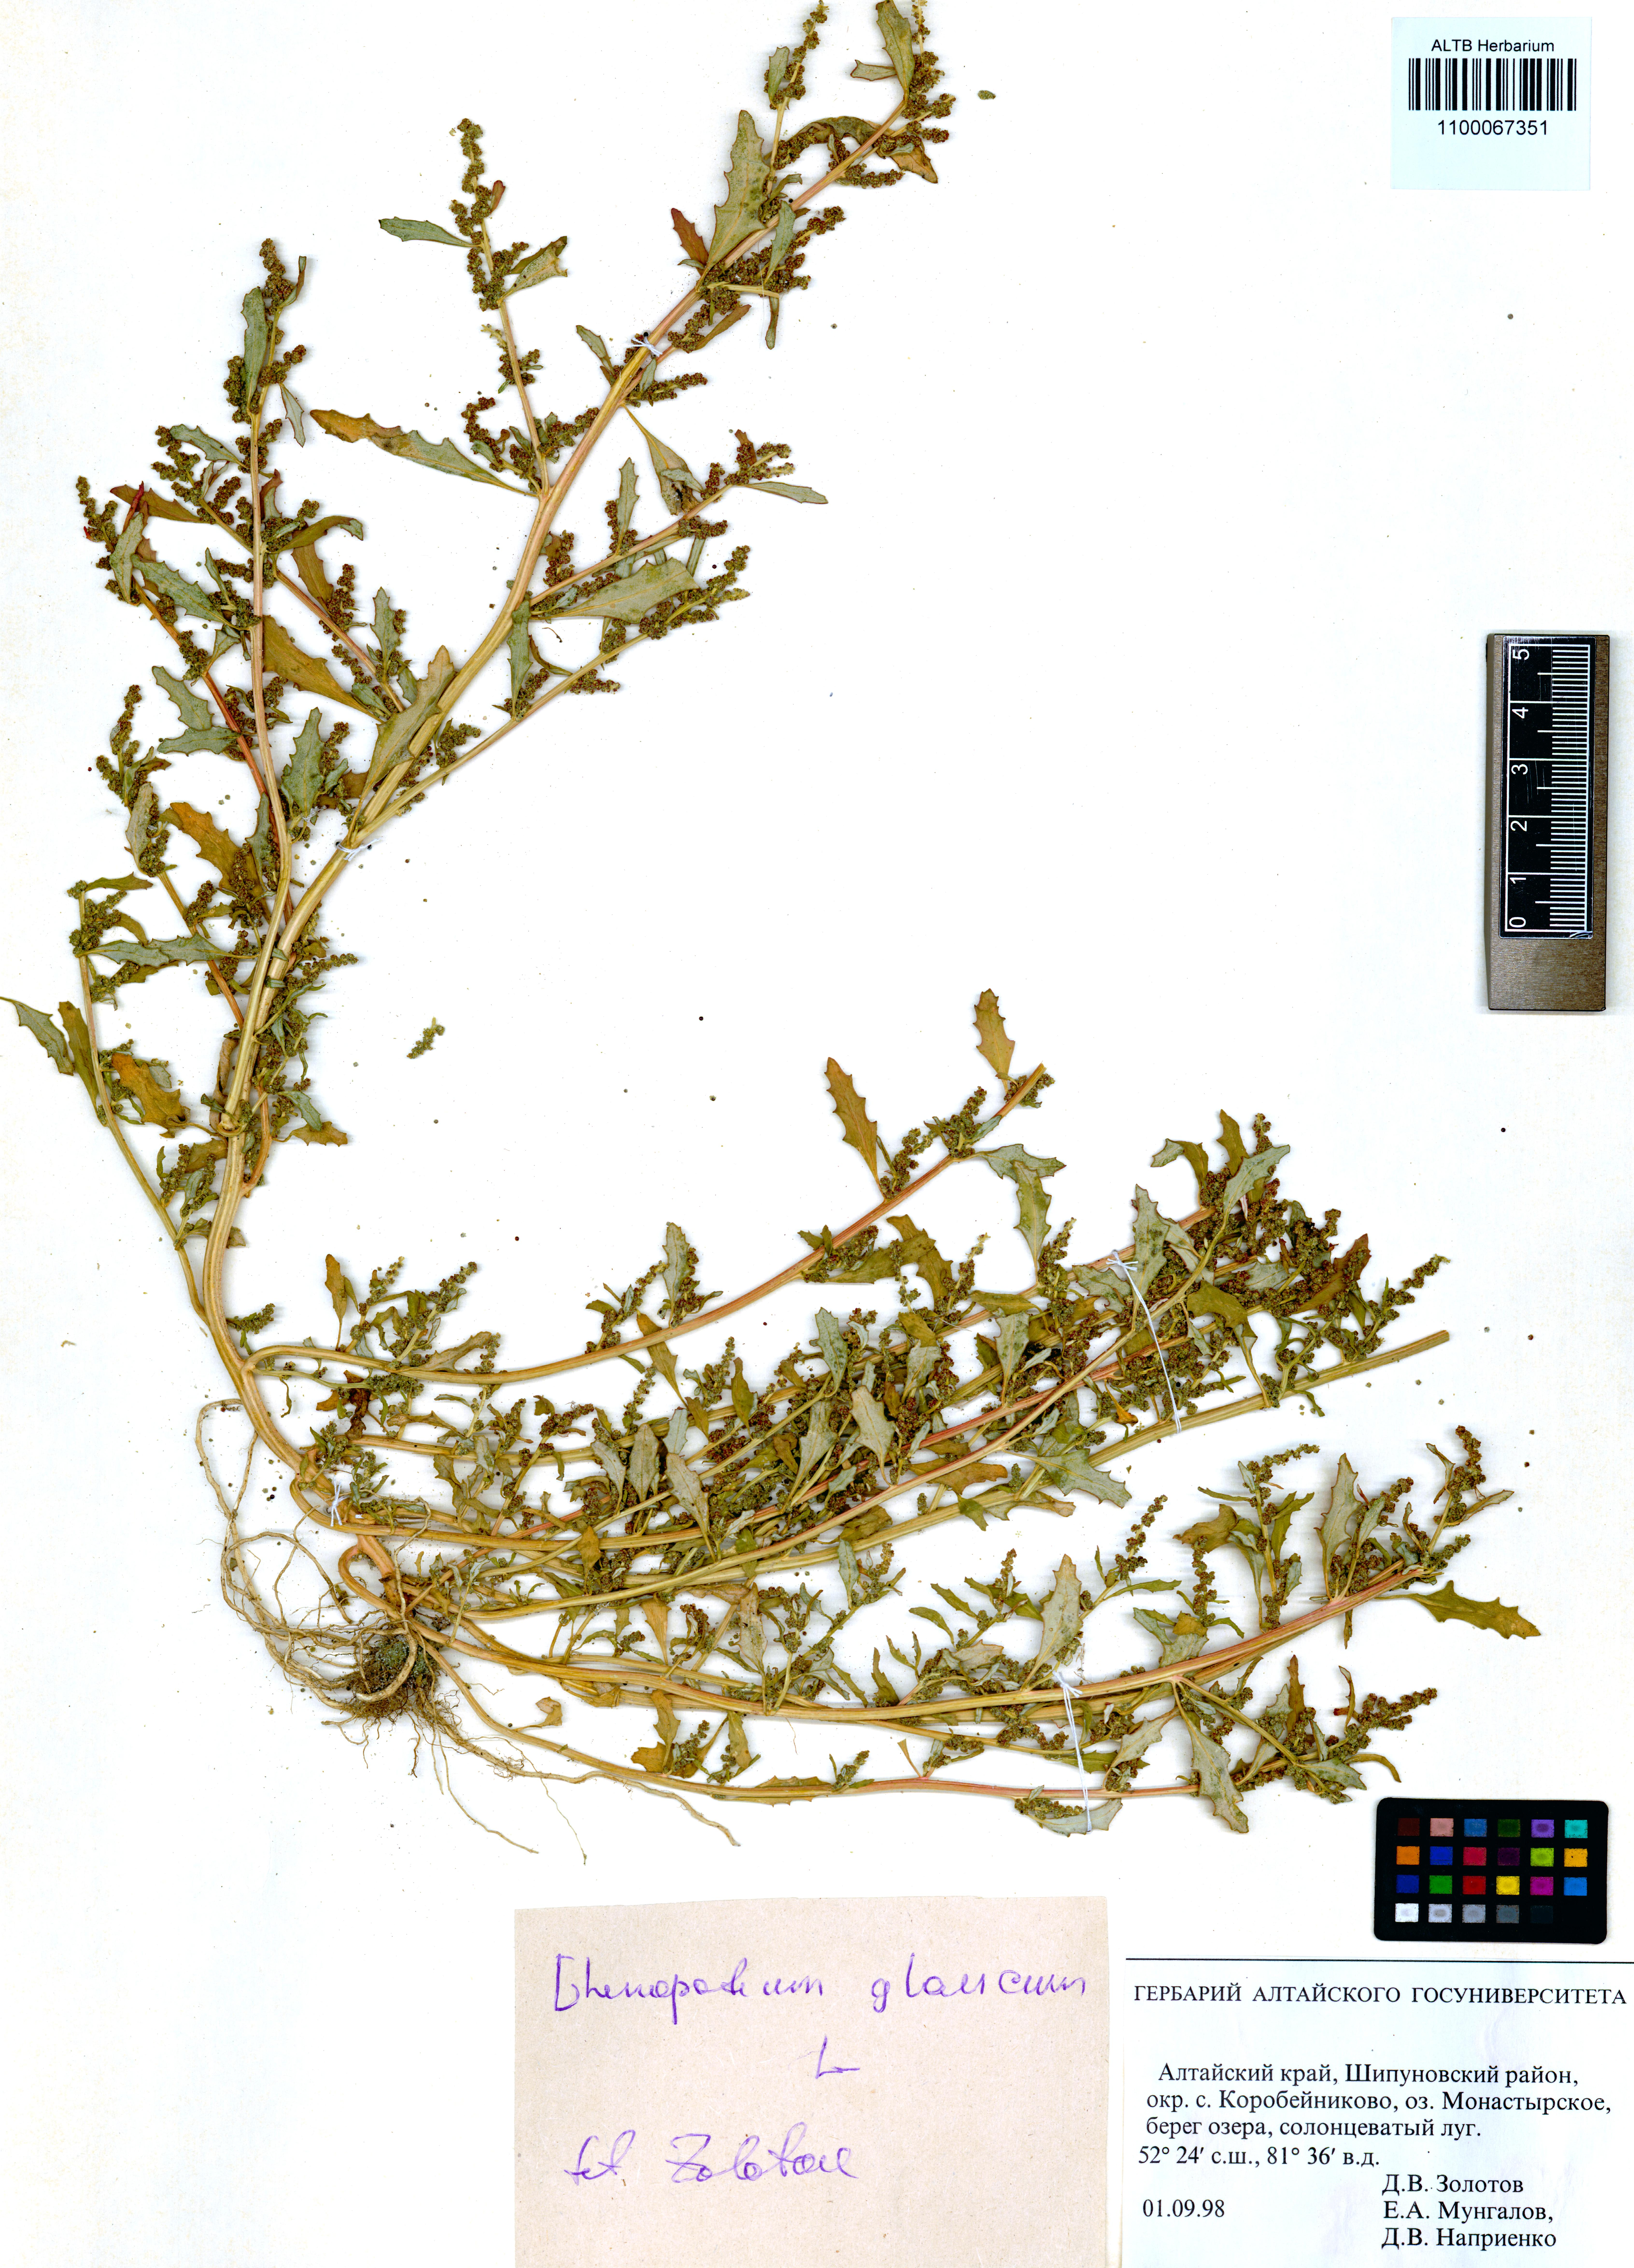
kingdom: Plantae
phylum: Tracheophyta
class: Magnoliopsida
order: Caryophyllales
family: Amaranthaceae
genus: Oxybasis
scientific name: Oxybasis glauca
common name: Glaucous goosefoot
